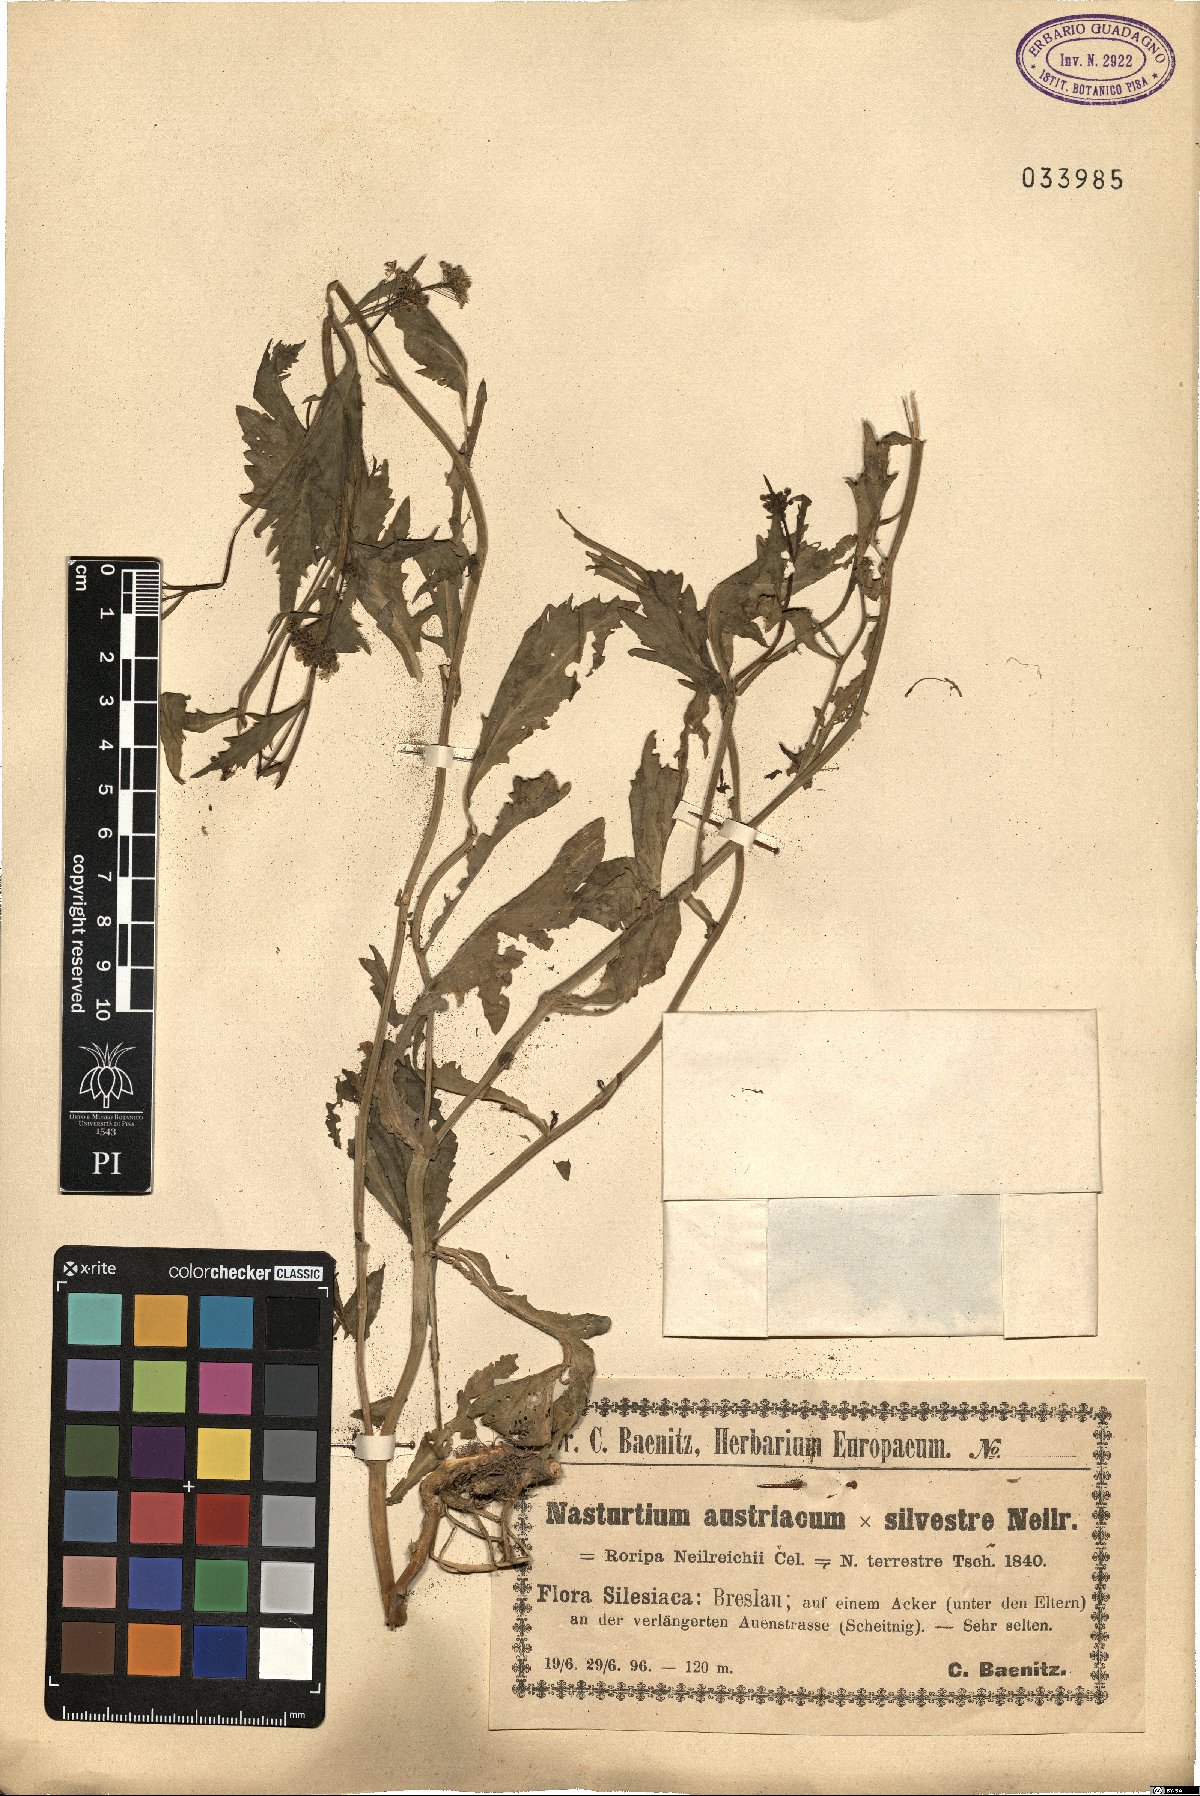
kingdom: Plantae
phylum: Tracheophyta
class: Magnoliopsida
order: Brassicales
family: Brassicaceae
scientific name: Brassicaceae
